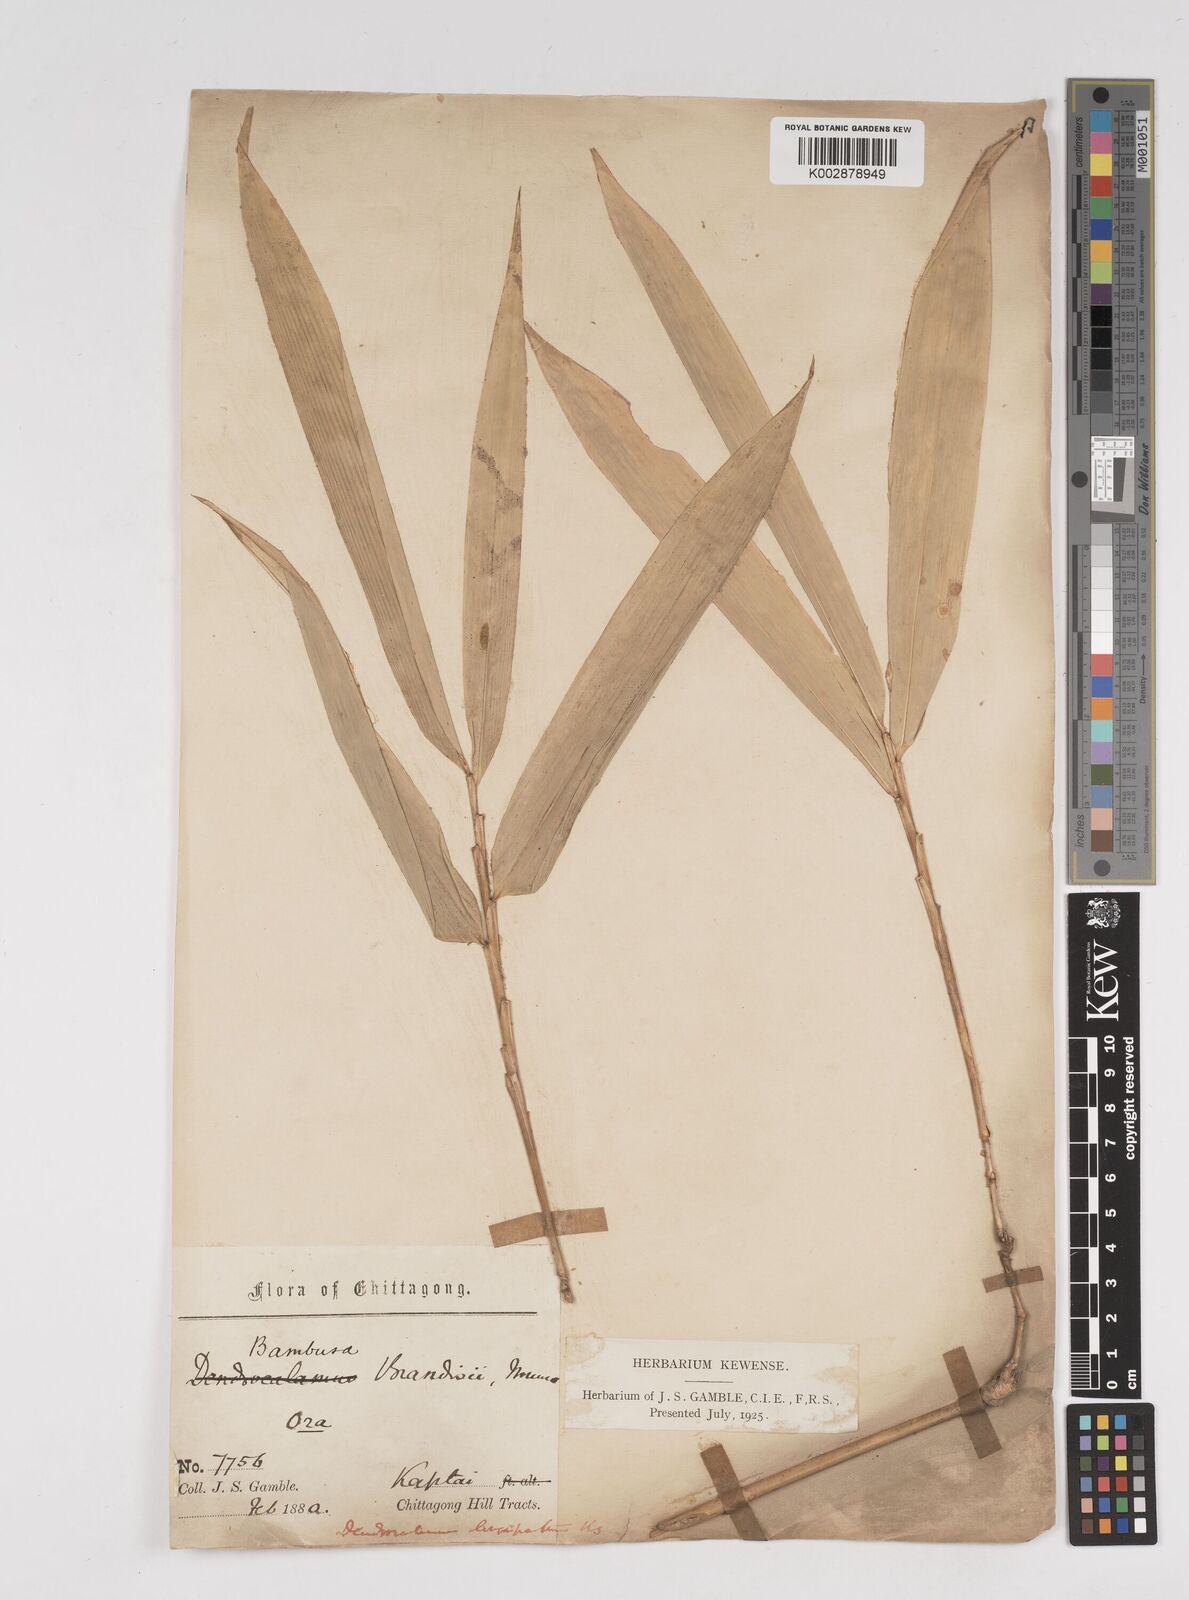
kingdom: Plantae
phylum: Tracheophyta
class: Liliopsida
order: Poales
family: Poaceae
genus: Dendrocalamus
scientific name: Dendrocalamus longispathus
